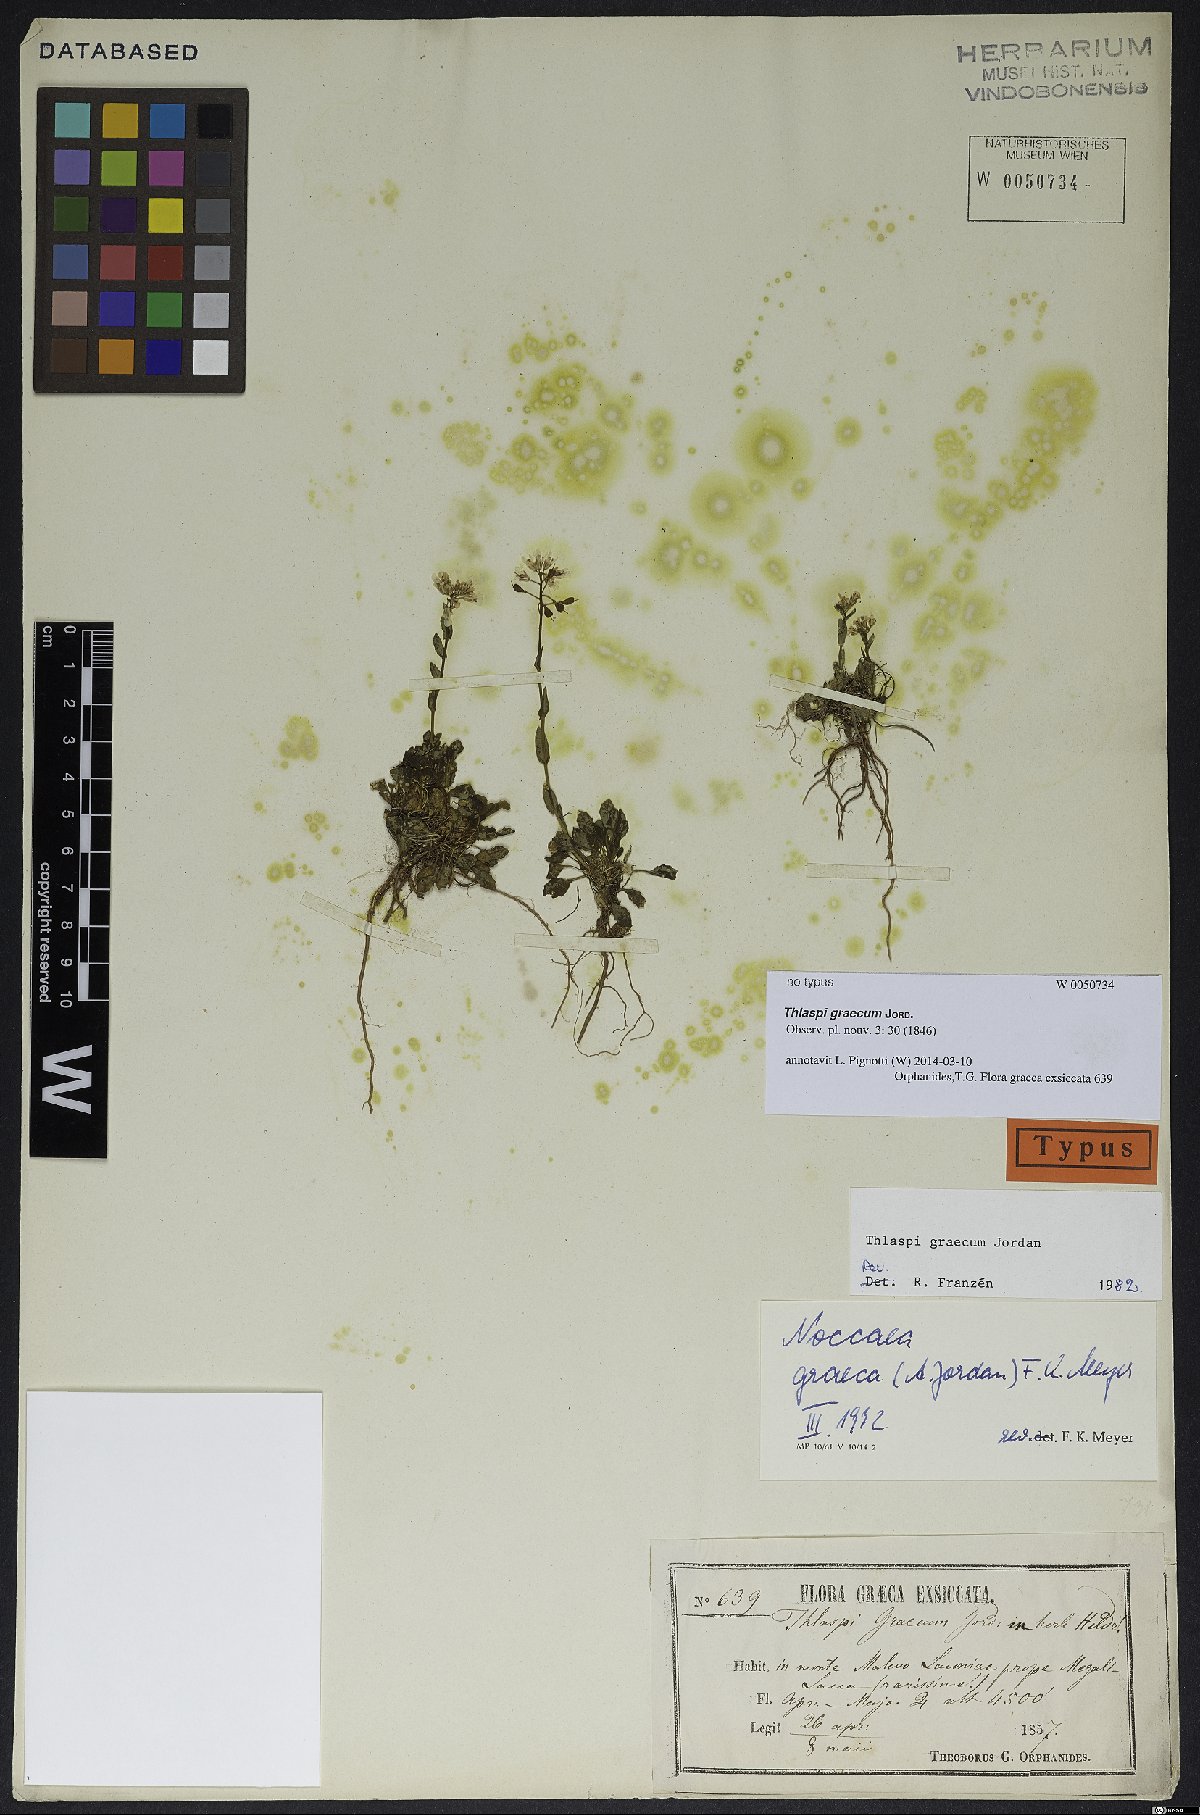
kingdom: Plantae
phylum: Tracheophyta
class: Magnoliopsida
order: Brassicales
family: Brassicaceae
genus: Noccaea
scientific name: Noccaea graeca
